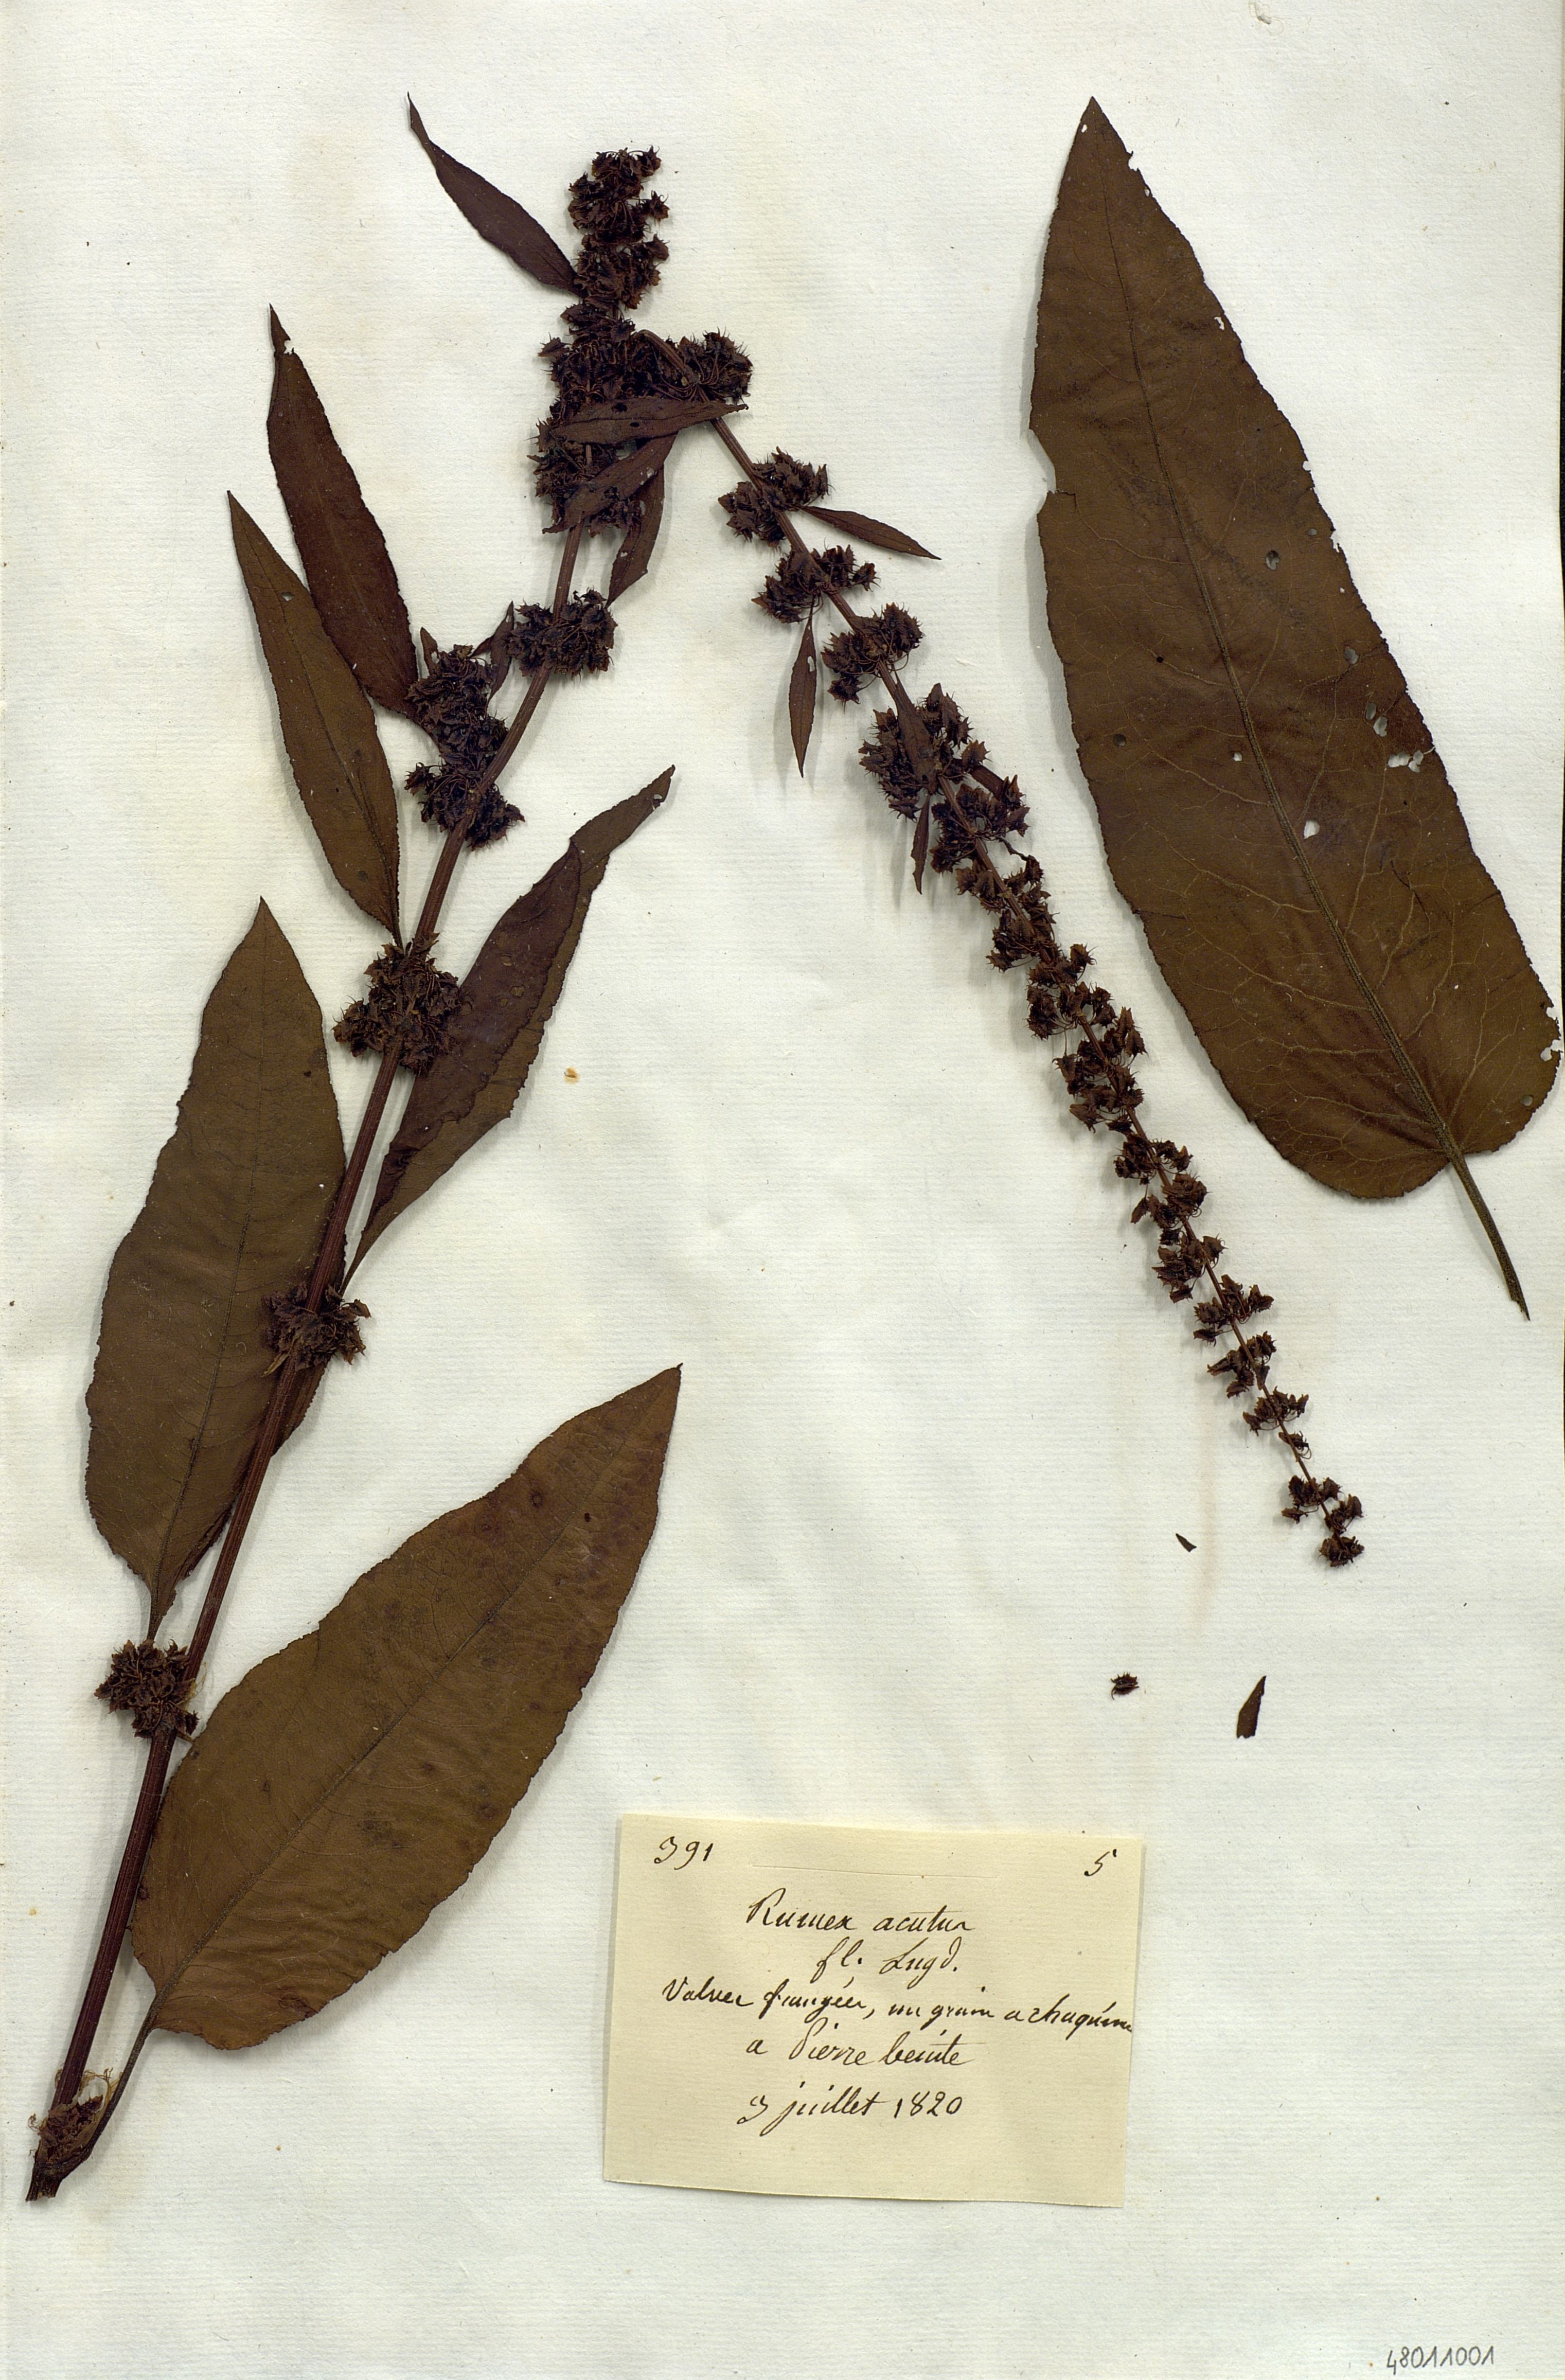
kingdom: Plantae
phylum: Tracheophyta
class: Magnoliopsida
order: Caryophyllales
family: Polygonaceae
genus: Rumex
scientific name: Rumex acutus
